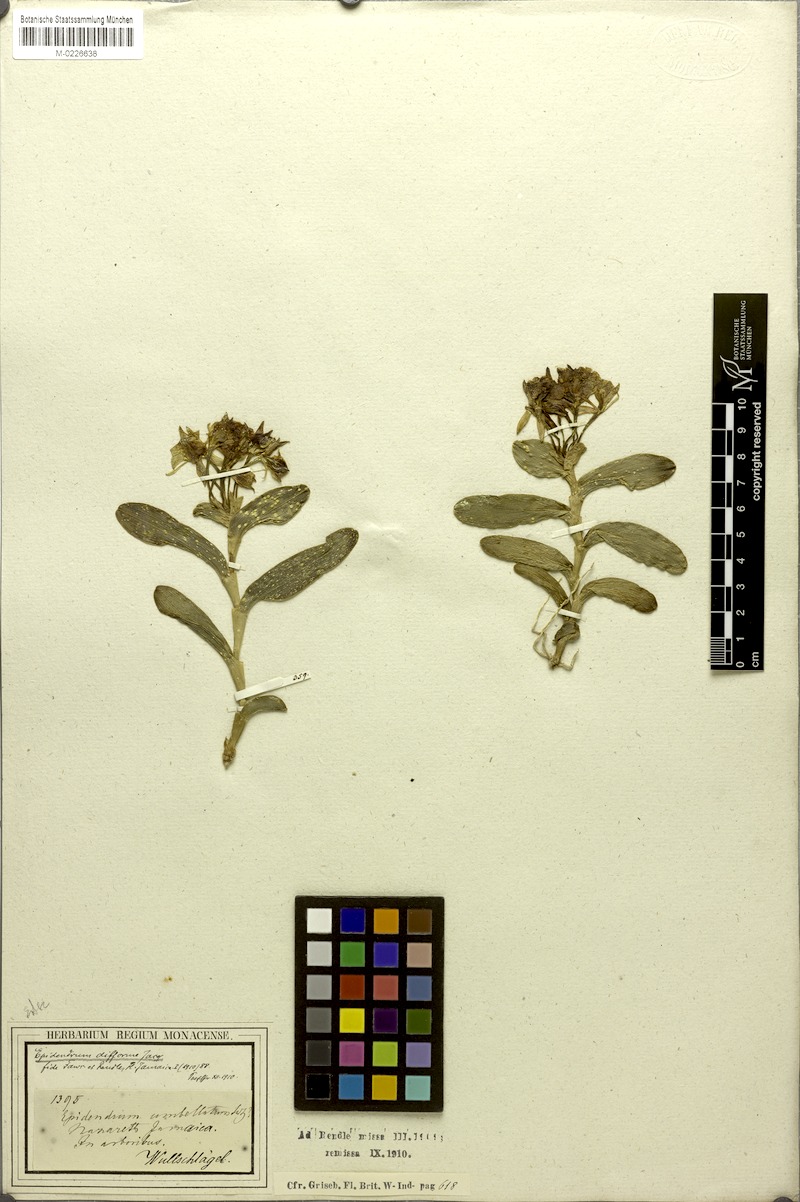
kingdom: Plantae
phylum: Tracheophyta
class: Liliopsida
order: Asparagales
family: Orchidaceae
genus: Epidendrum
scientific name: Epidendrum difforme
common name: Umbrella epidendrum
